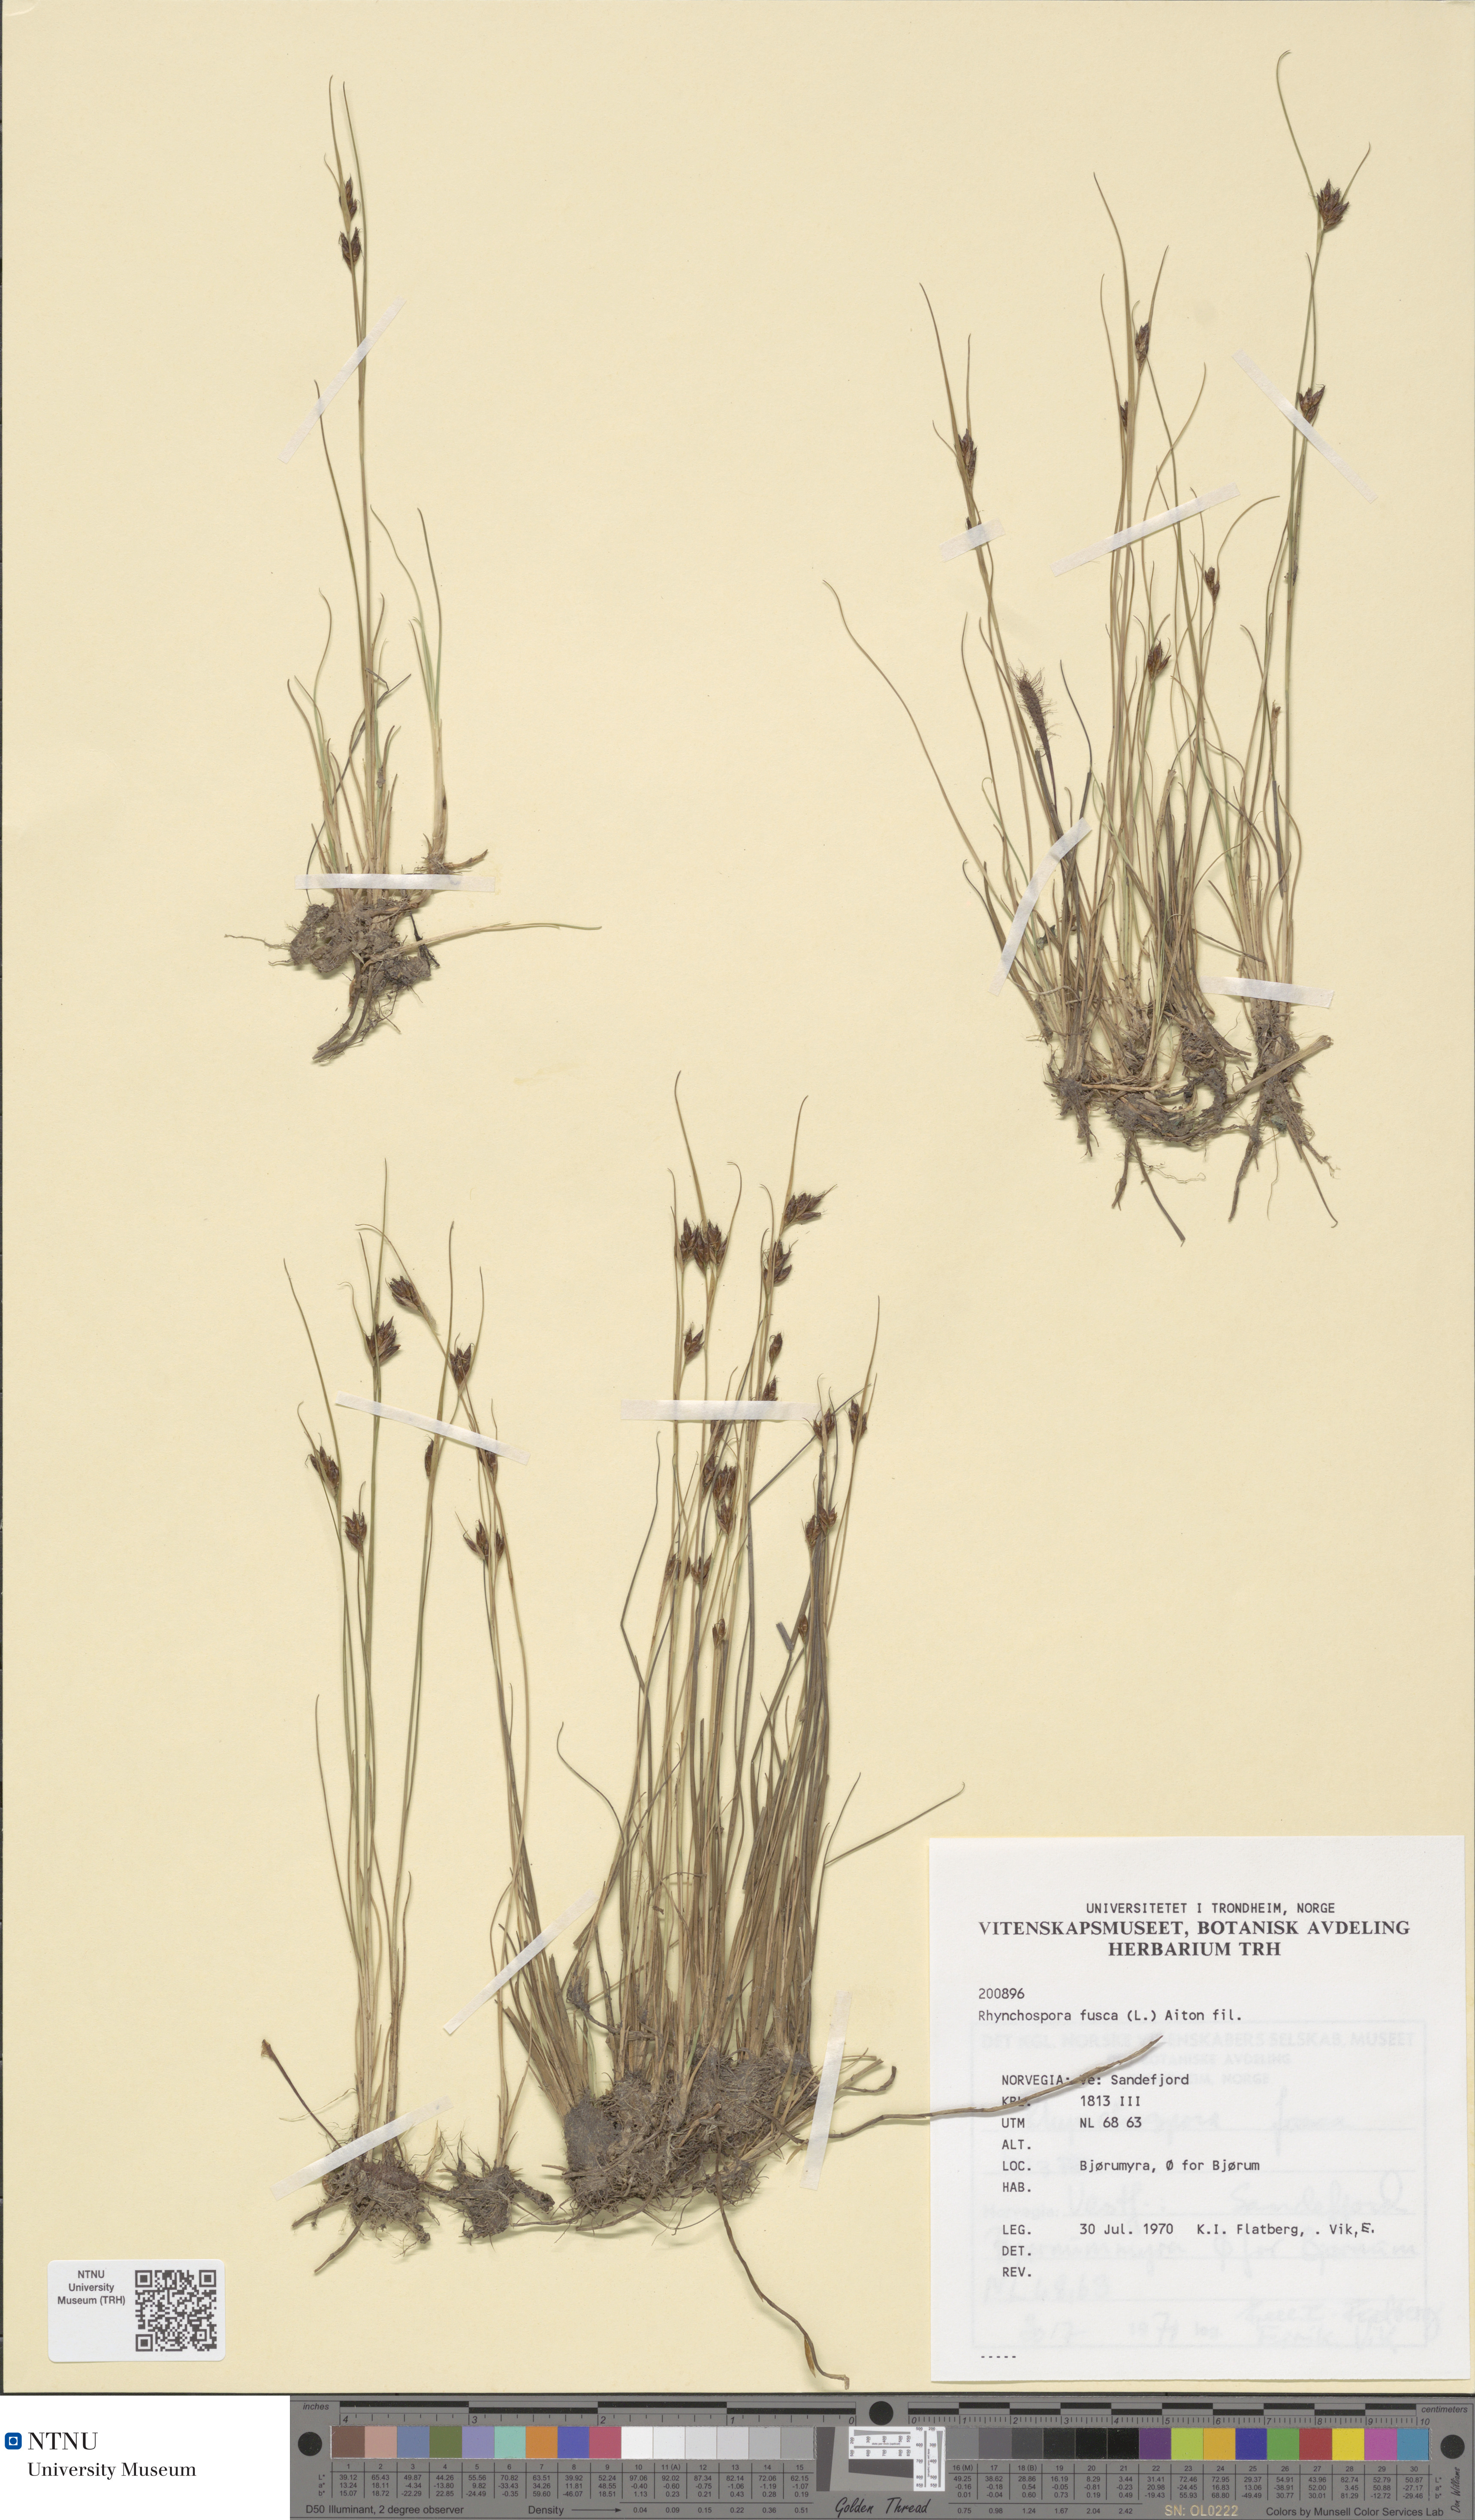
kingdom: Plantae
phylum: Tracheophyta
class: Liliopsida
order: Poales
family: Cyperaceae
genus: Rhynchospora
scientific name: Rhynchospora fusca
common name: Brown beak-sedge
